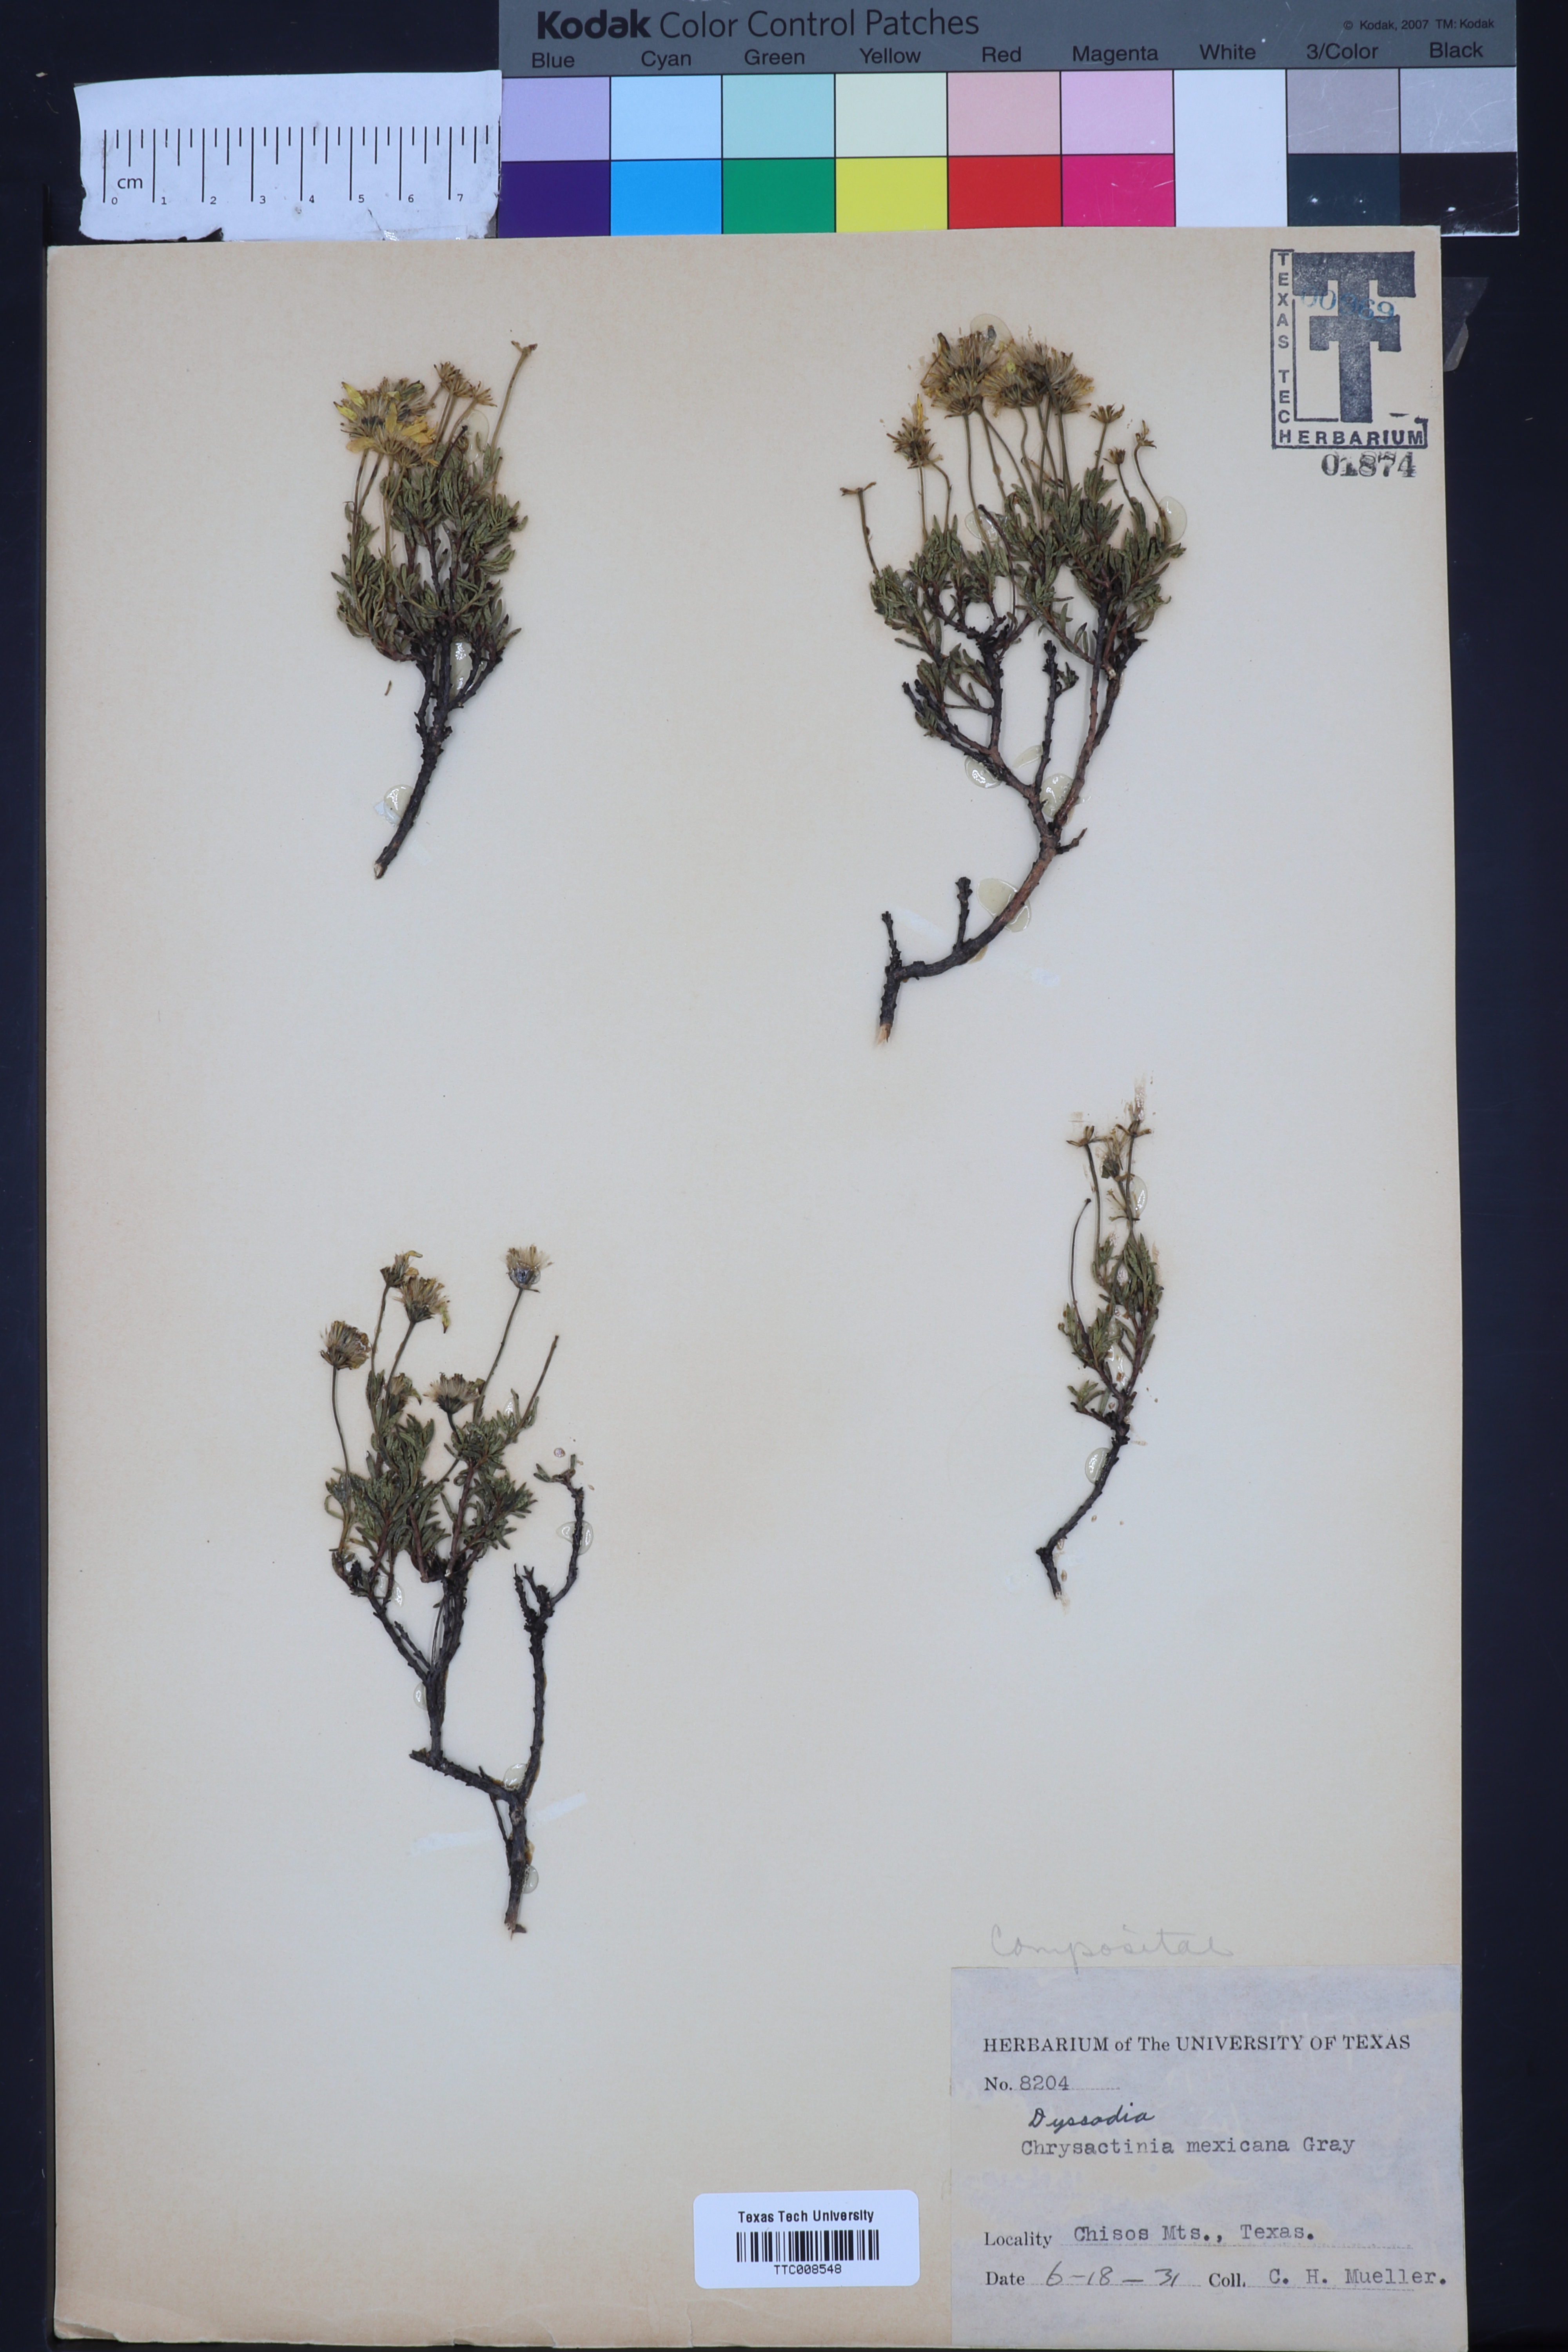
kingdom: Plantae
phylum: Tracheophyta
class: Magnoliopsida
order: Asterales
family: Asteraceae
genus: Dyssodia
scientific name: Dyssodia
